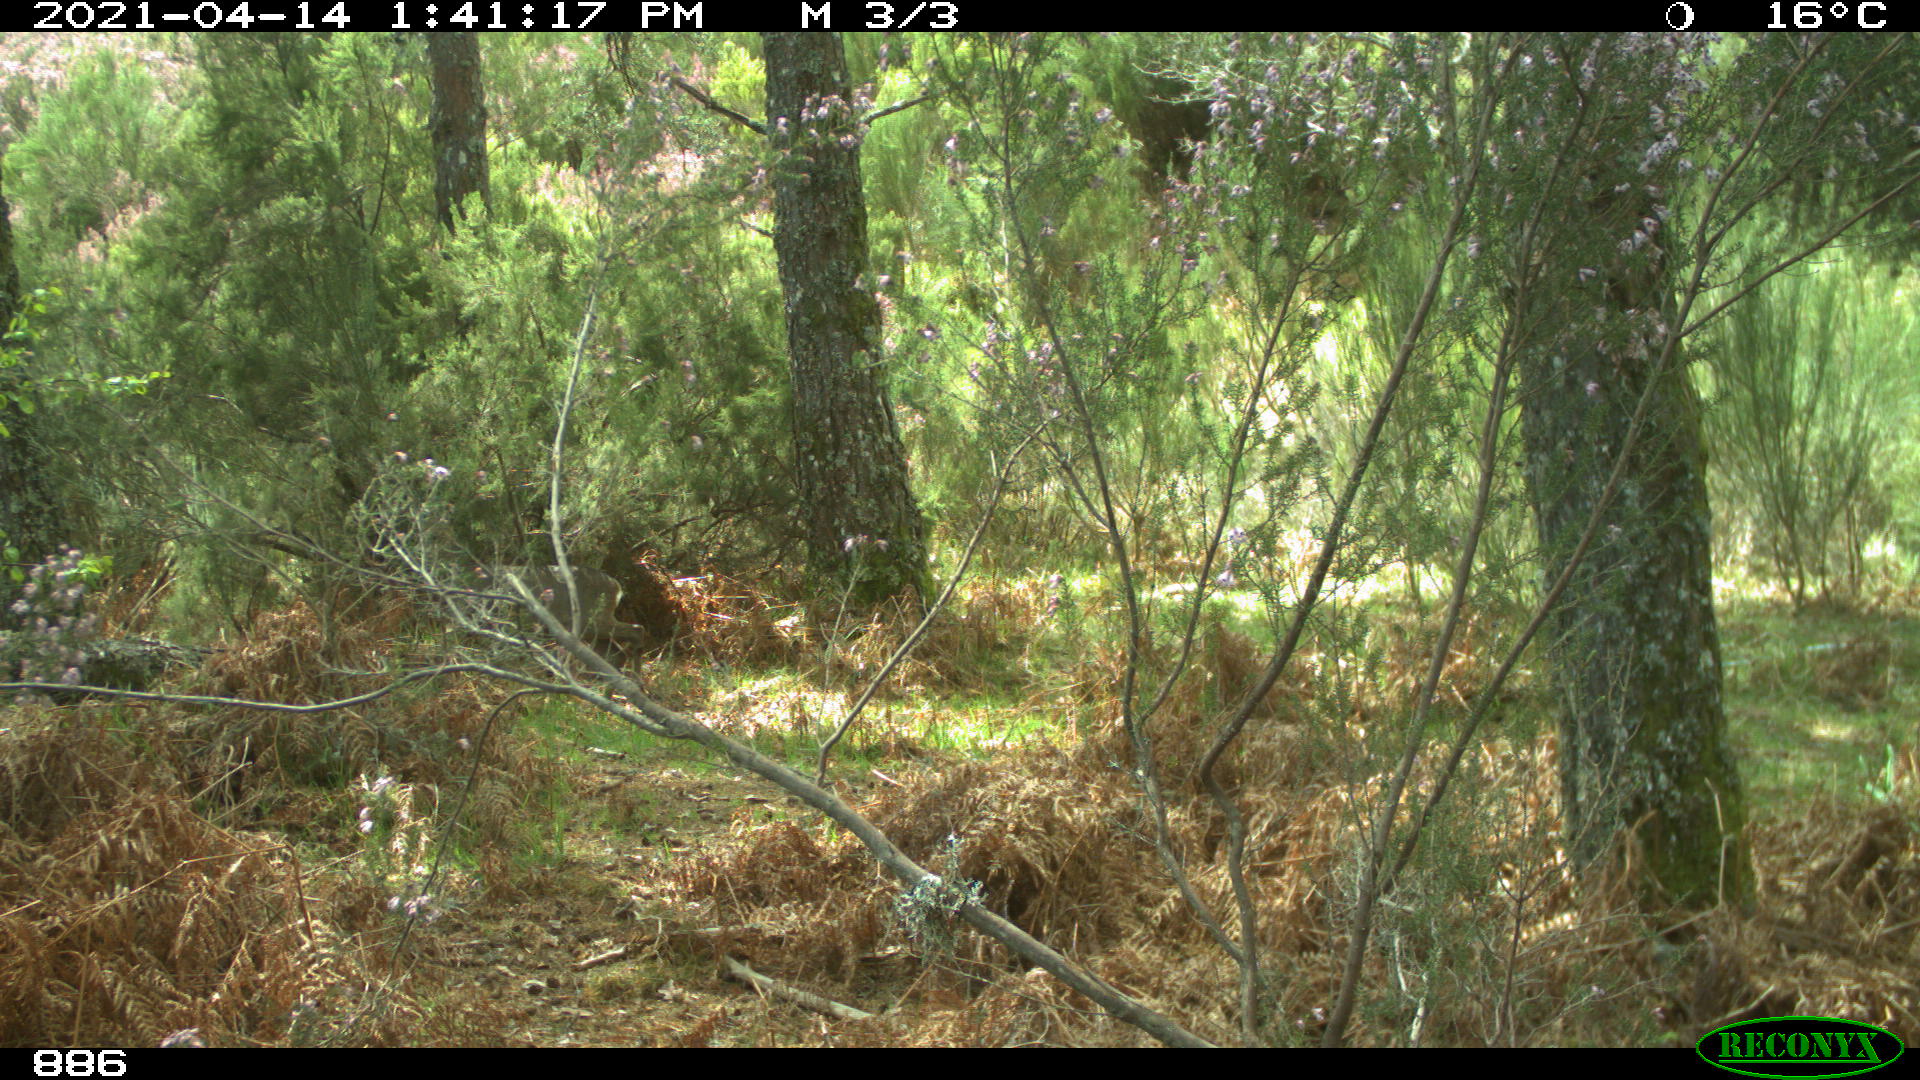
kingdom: Animalia
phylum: Chordata
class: Mammalia
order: Artiodactyla
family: Cervidae
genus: Capreolus
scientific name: Capreolus capreolus
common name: Western roe deer
